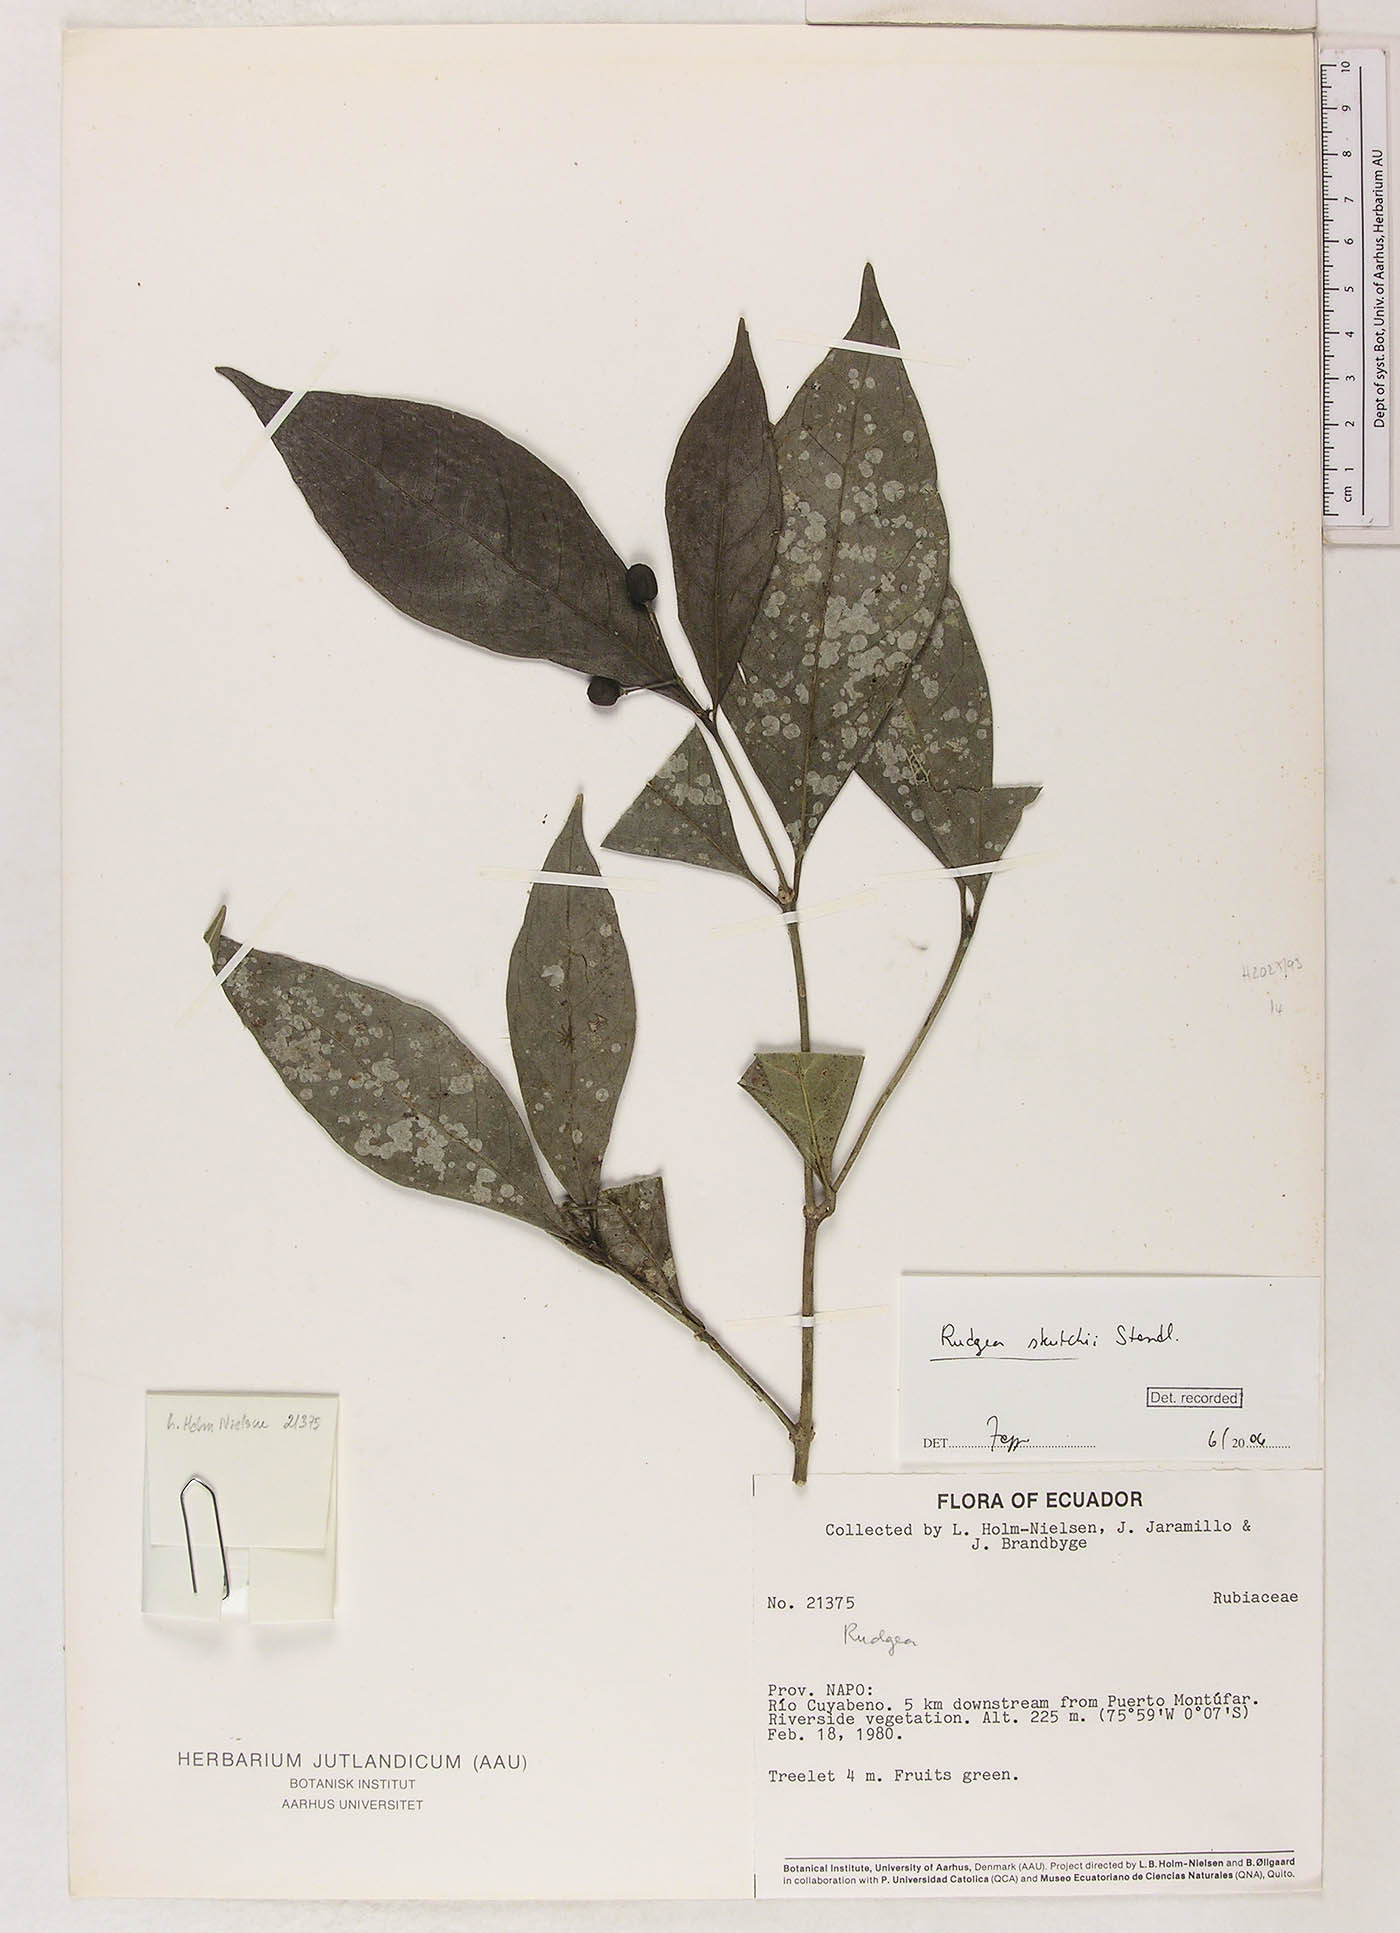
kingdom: Plantae
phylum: Tracheophyta
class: Magnoliopsida
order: Gentianales
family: Rubiaceae
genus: Rudgea
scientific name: Rudgea skutchii
